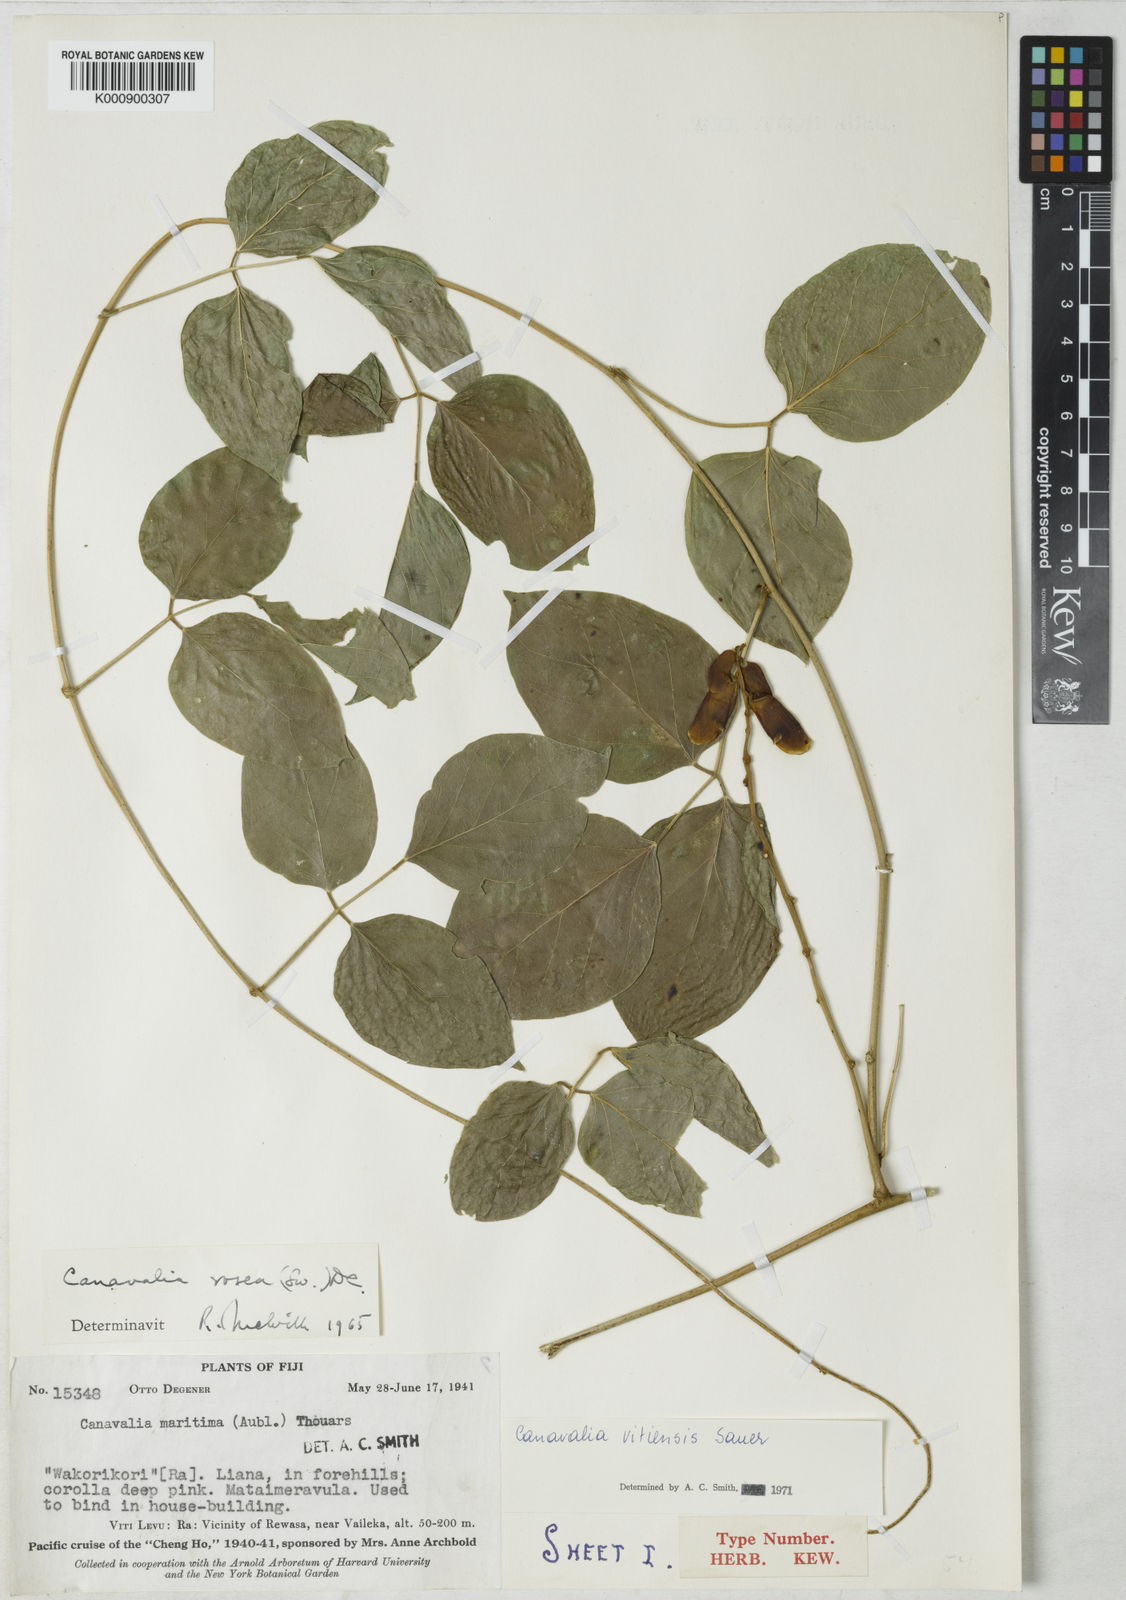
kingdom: Plantae
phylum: Tracheophyta
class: Magnoliopsida
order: Fabales
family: Fabaceae
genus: Canavalia
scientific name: Canavalia vitiensis
